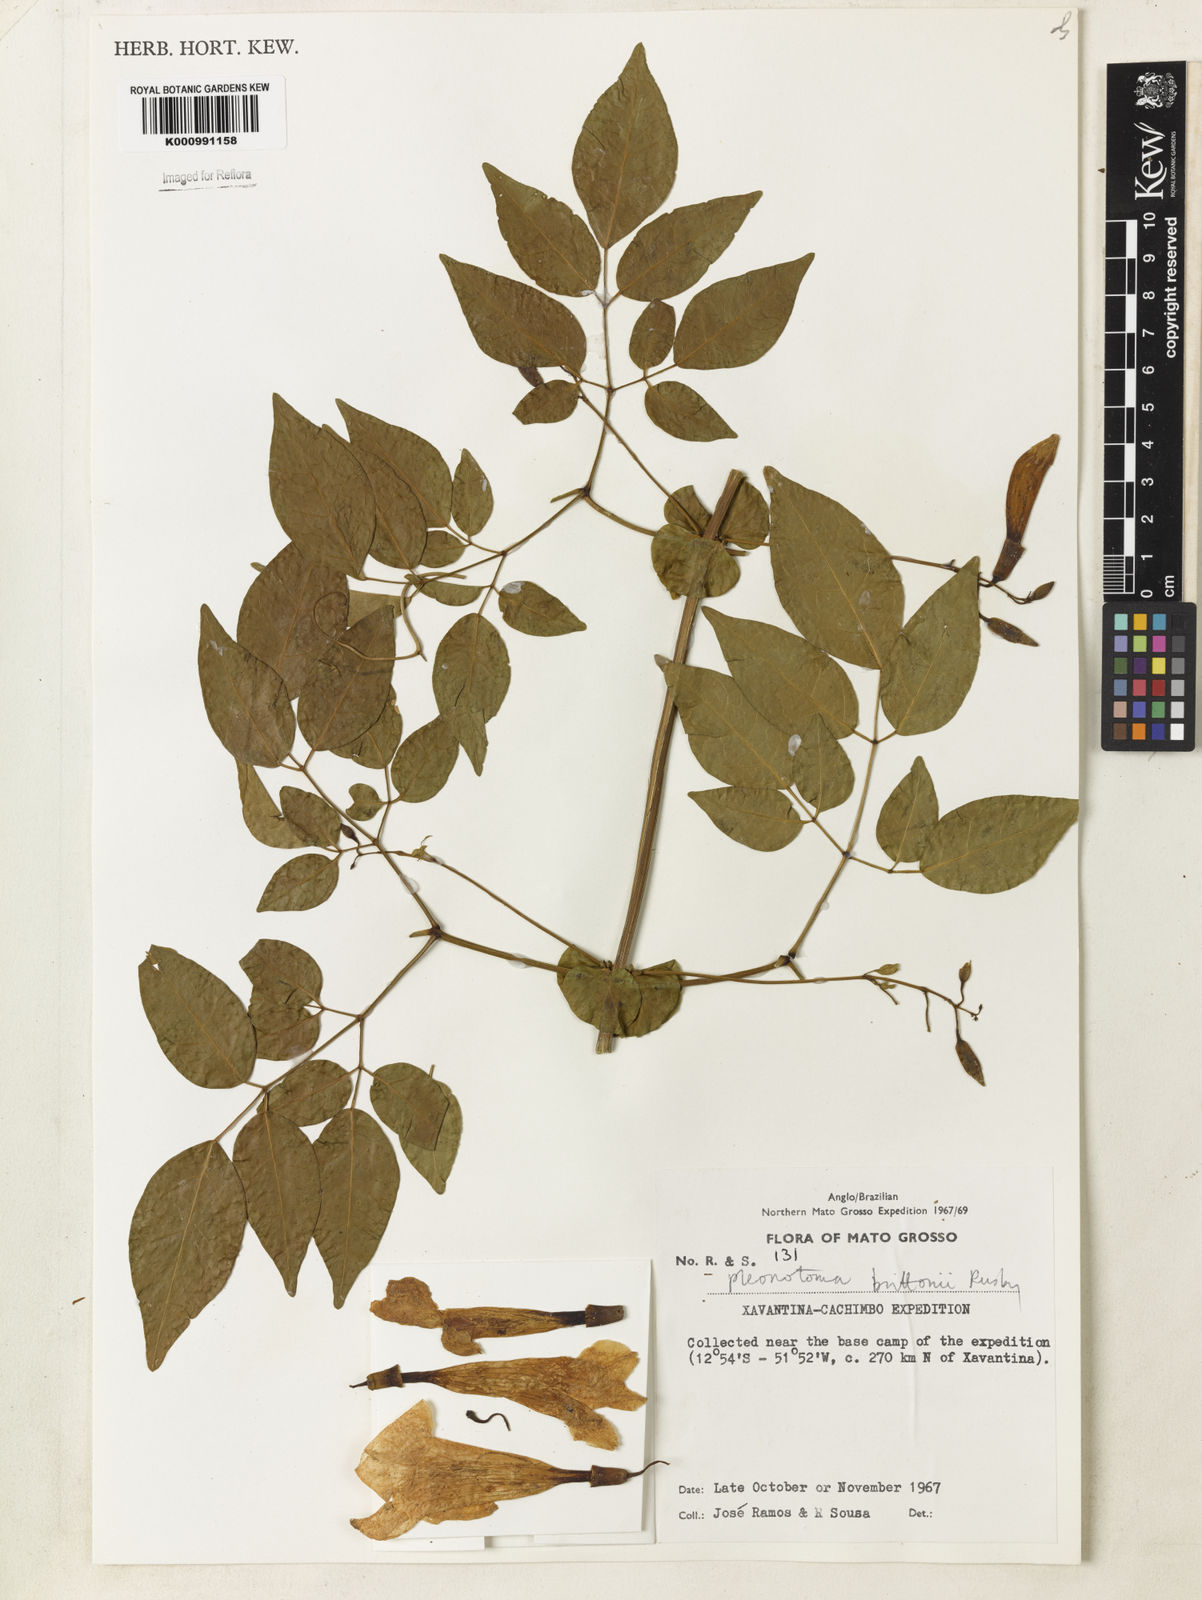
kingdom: Plantae
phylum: Tracheophyta
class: Magnoliopsida
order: Lamiales
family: Bignoniaceae
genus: Pleonotoma
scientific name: Pleonotoma jasminifolia
